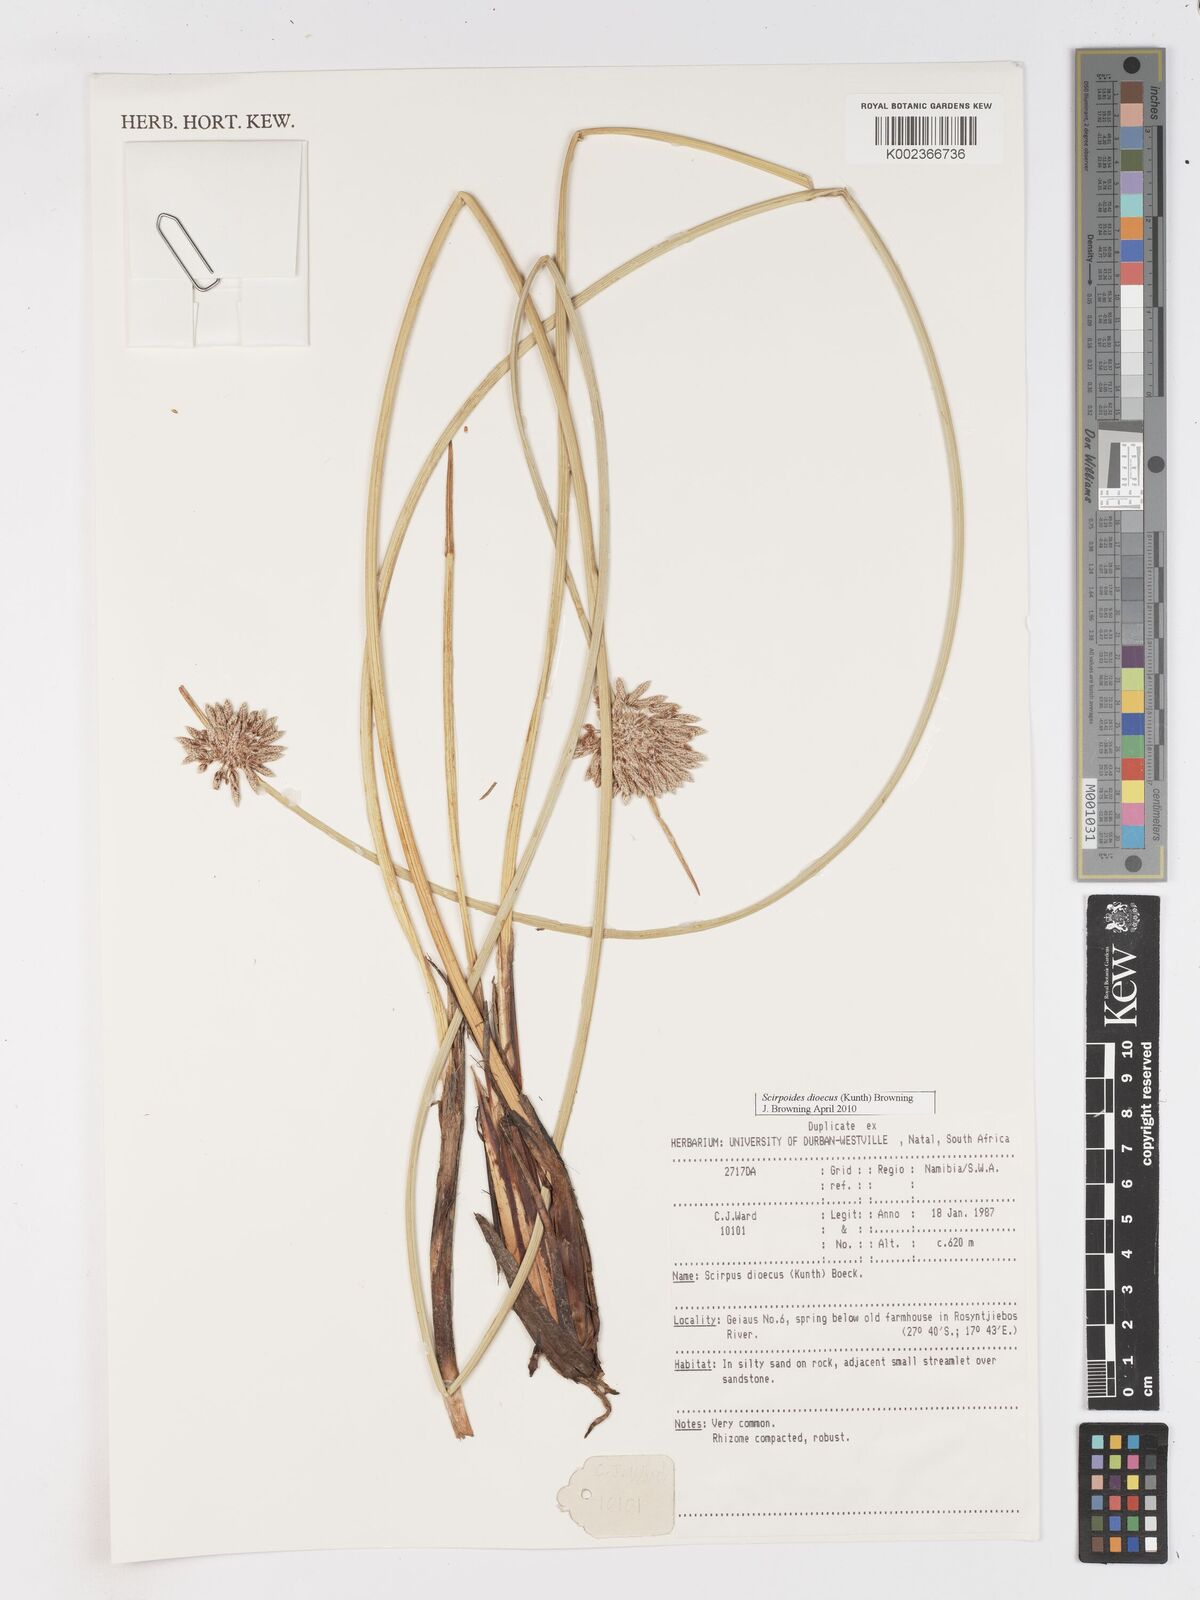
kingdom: Plantae
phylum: Tracheophyta
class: Liliopsida
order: Poales
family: Cyperaceae
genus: Scirpoides
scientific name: Scirpoides
